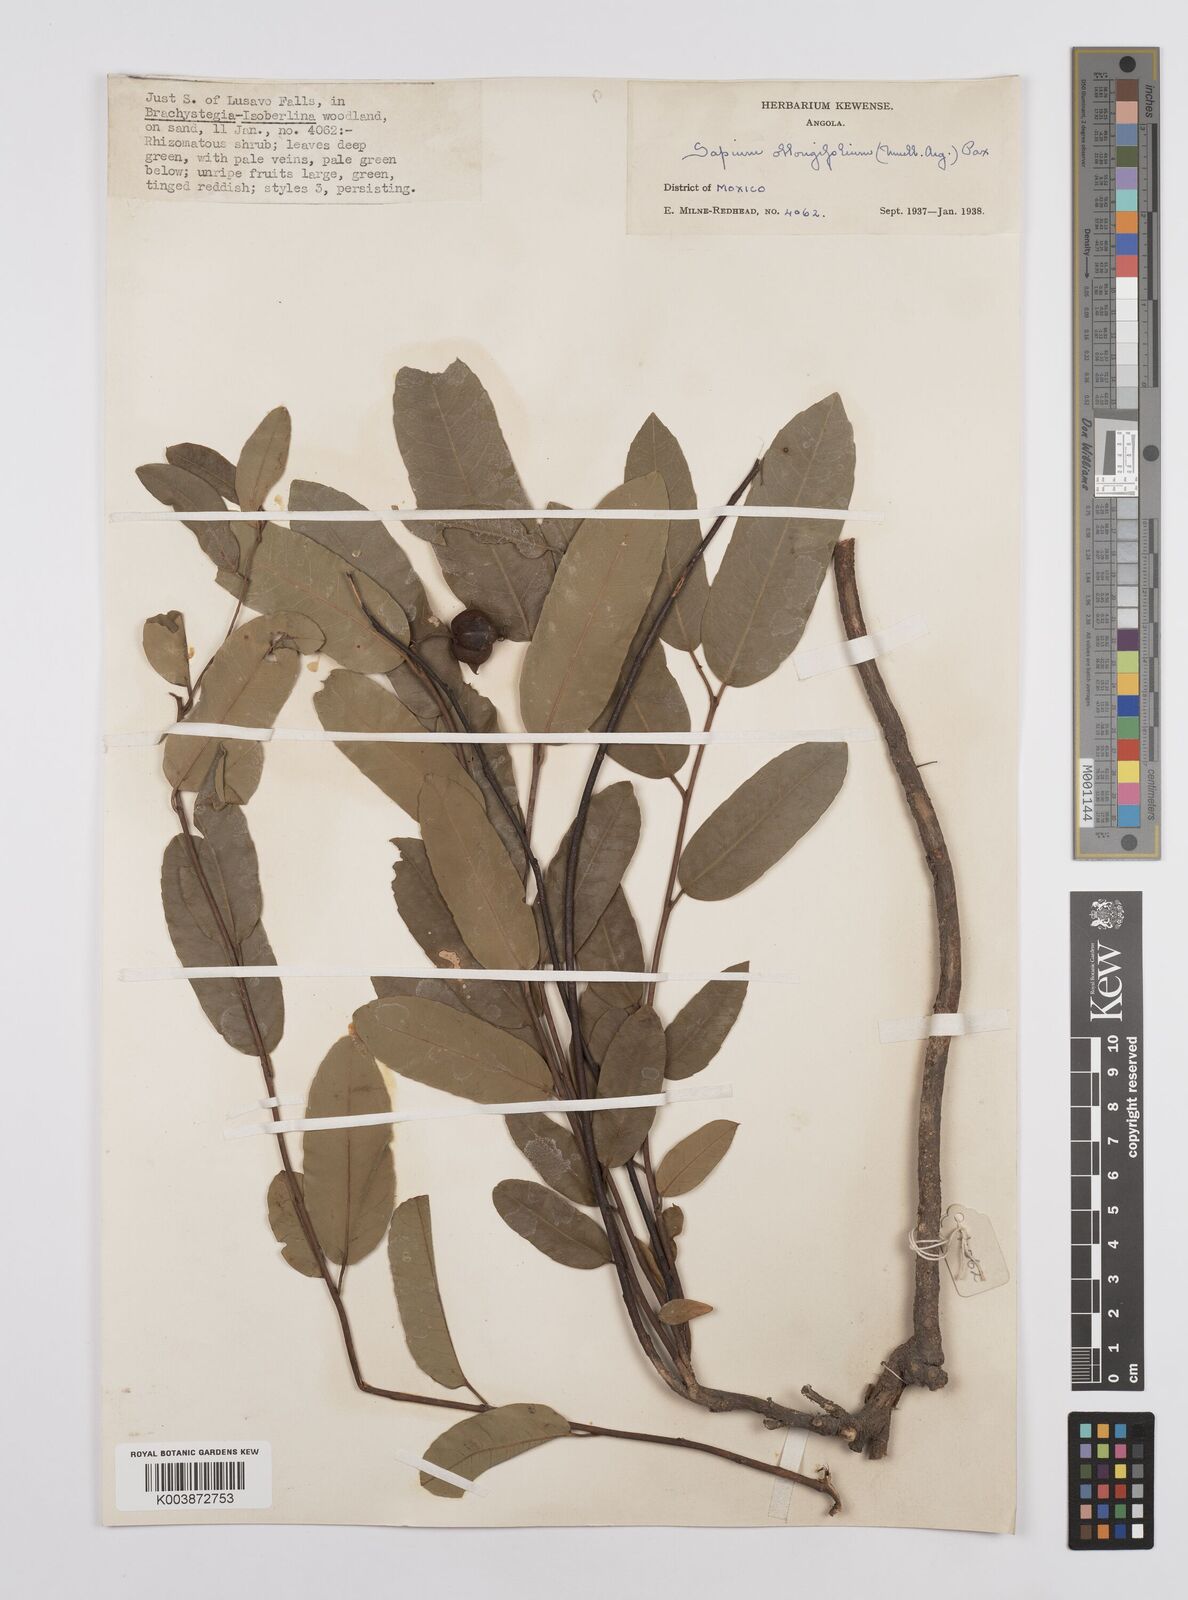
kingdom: Plantae
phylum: Tracheophyta
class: Magnoliopsida
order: Malpighiales
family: Euphorbiaceae
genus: Sclerocroton
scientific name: Sclerocroton oblongifolius
